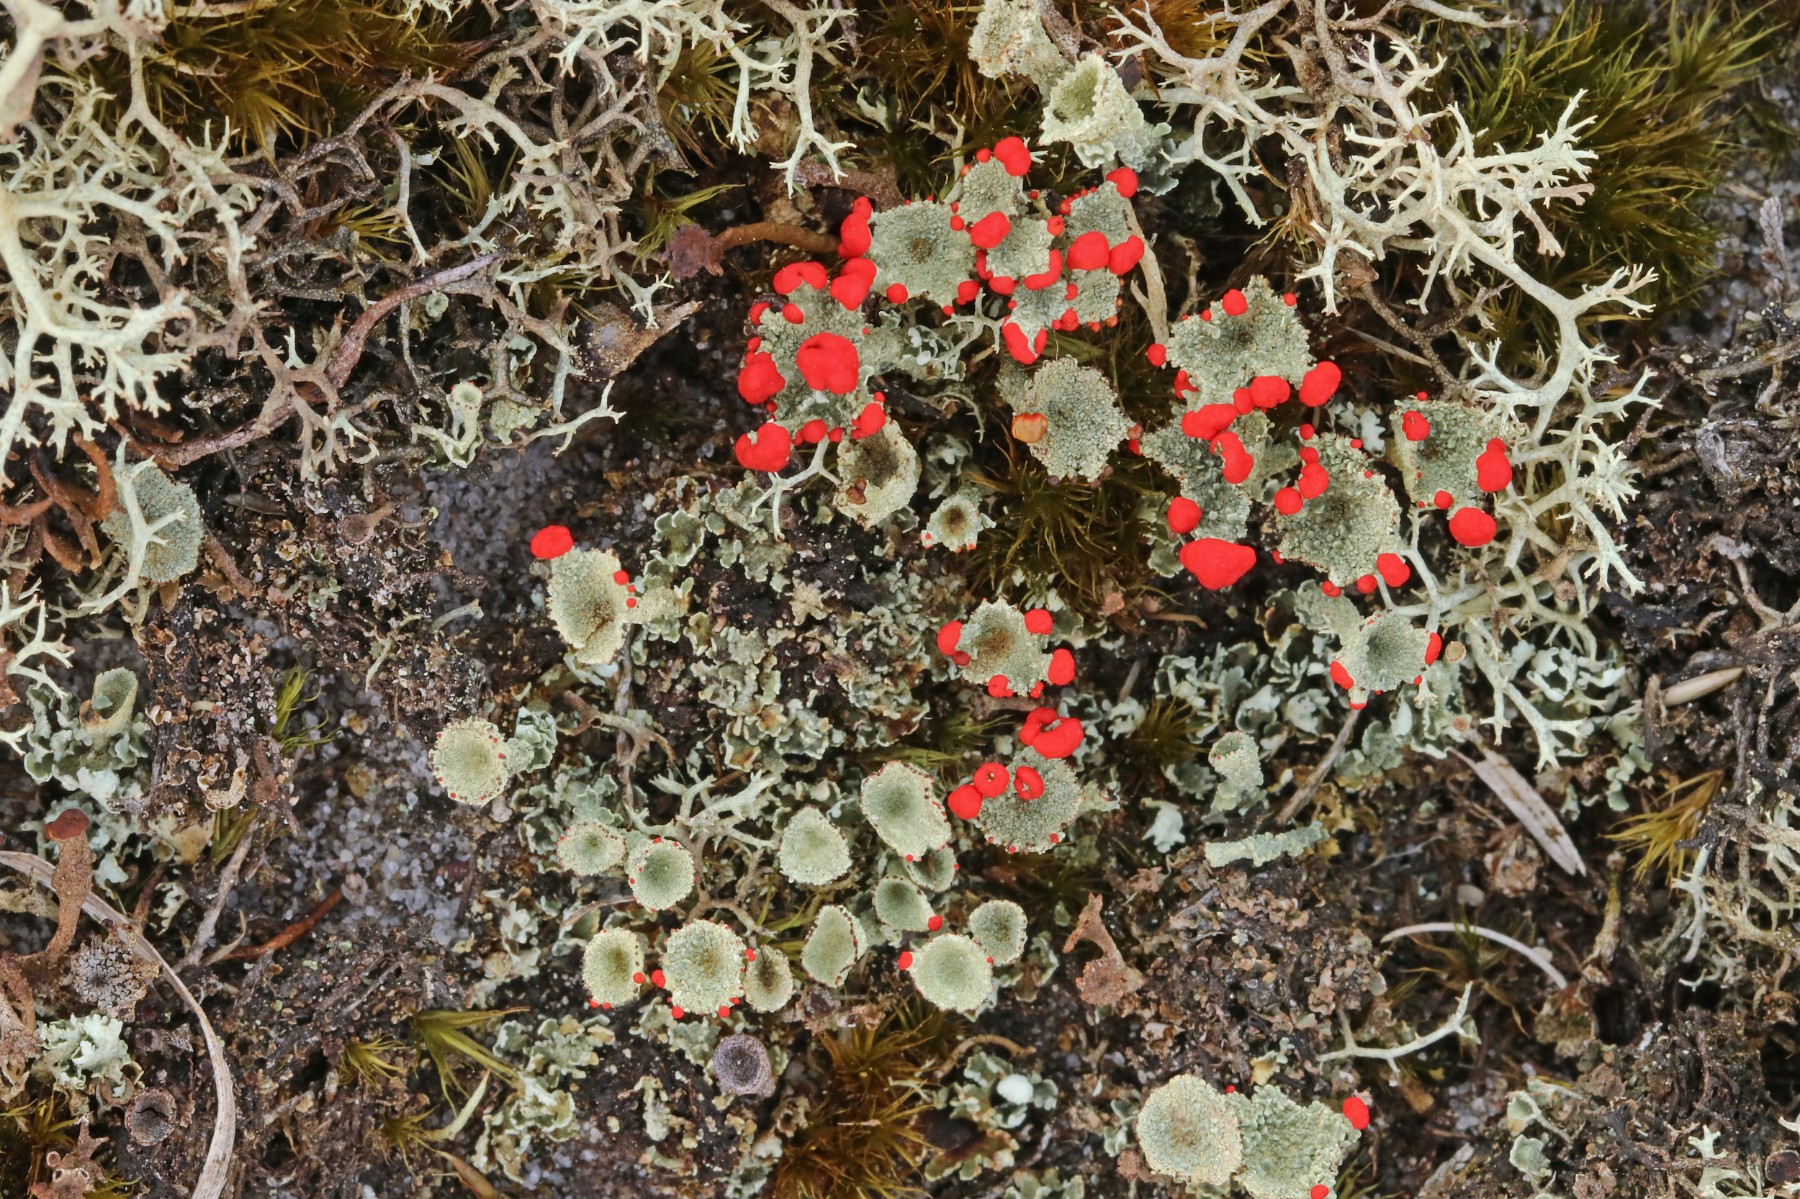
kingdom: Fungi
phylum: Ascomycota
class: Lecanoromycetes
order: Lecanorales
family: Cladoniaceae
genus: Cladonia
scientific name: Cladonia diversa
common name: rød bægerlav
